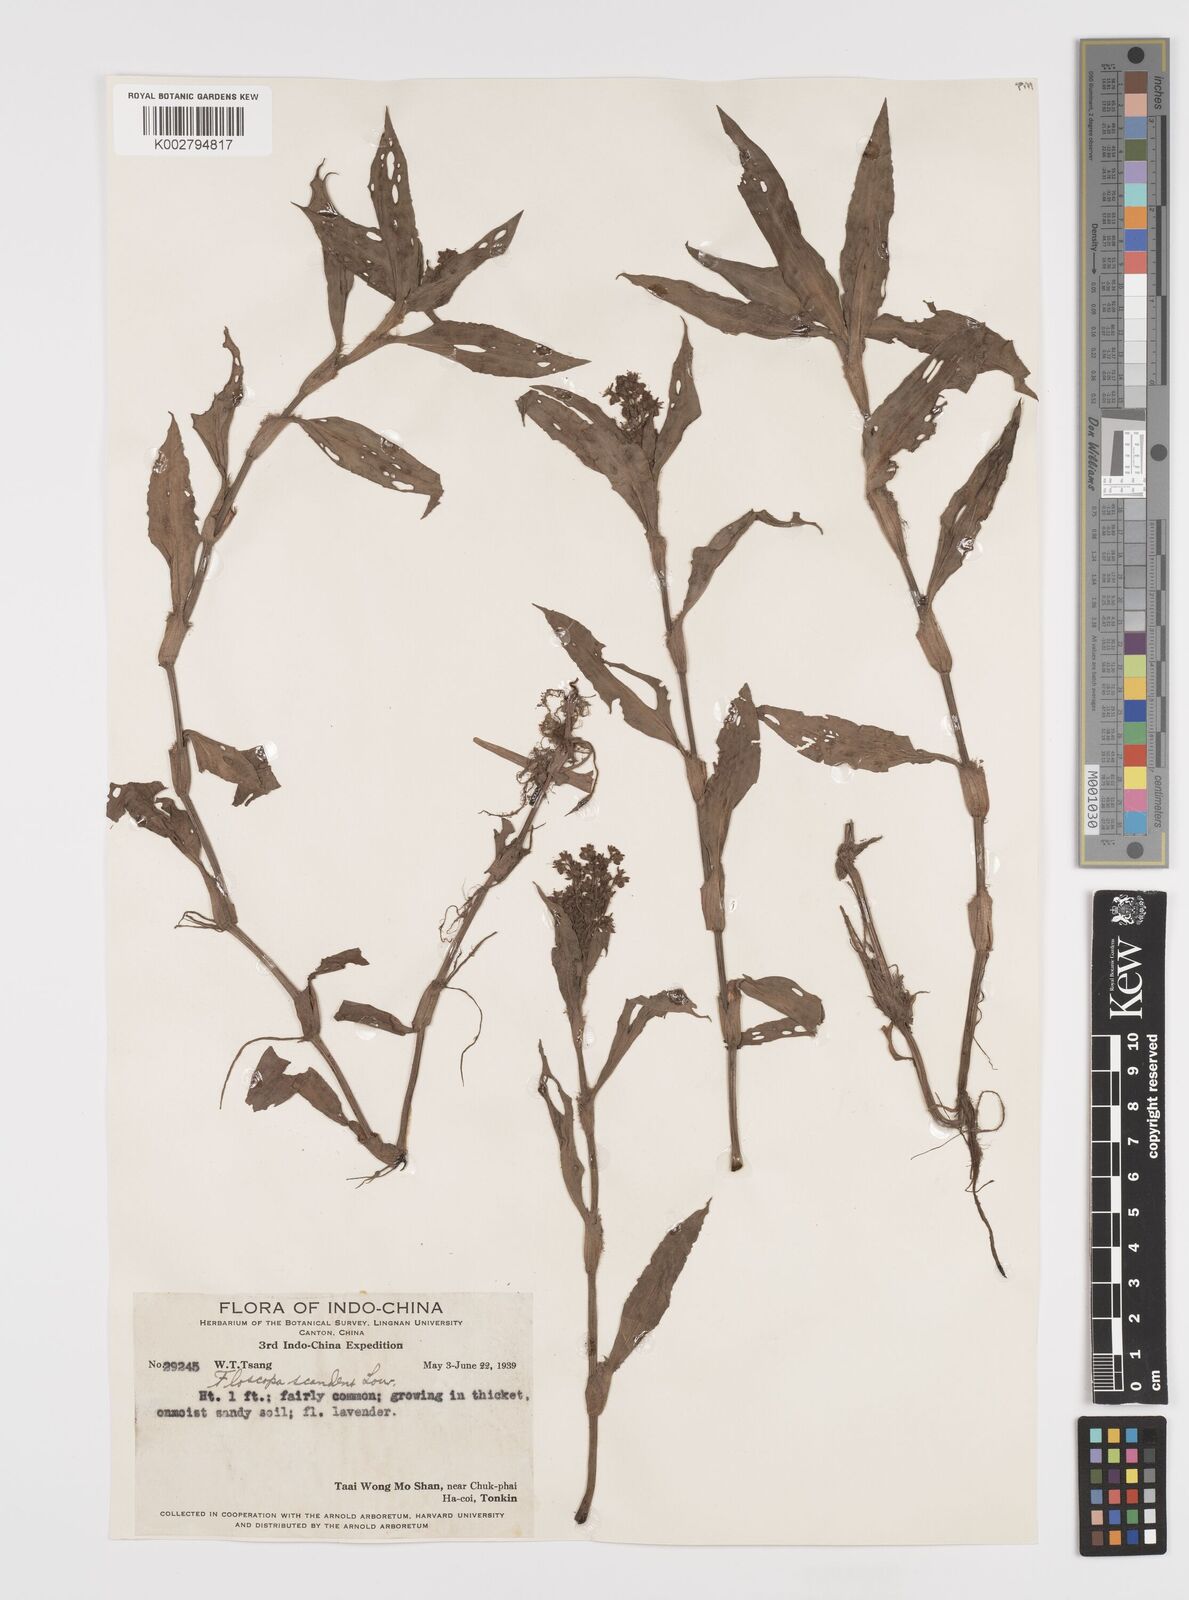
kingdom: Plantae
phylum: Tracheophyta
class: Liliopsida
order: Commelinales
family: Commelinaceae
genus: Floscopa
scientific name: Floscopa scandens
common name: Climbing flower cup
